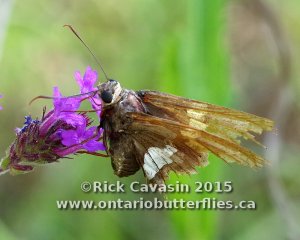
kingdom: Animalia
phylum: Arthropoda
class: Insecta
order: Lepidoptera
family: Hesperiidae
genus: Epargyreus
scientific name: Epargyreus clarus
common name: Silver-spotted Skipper
